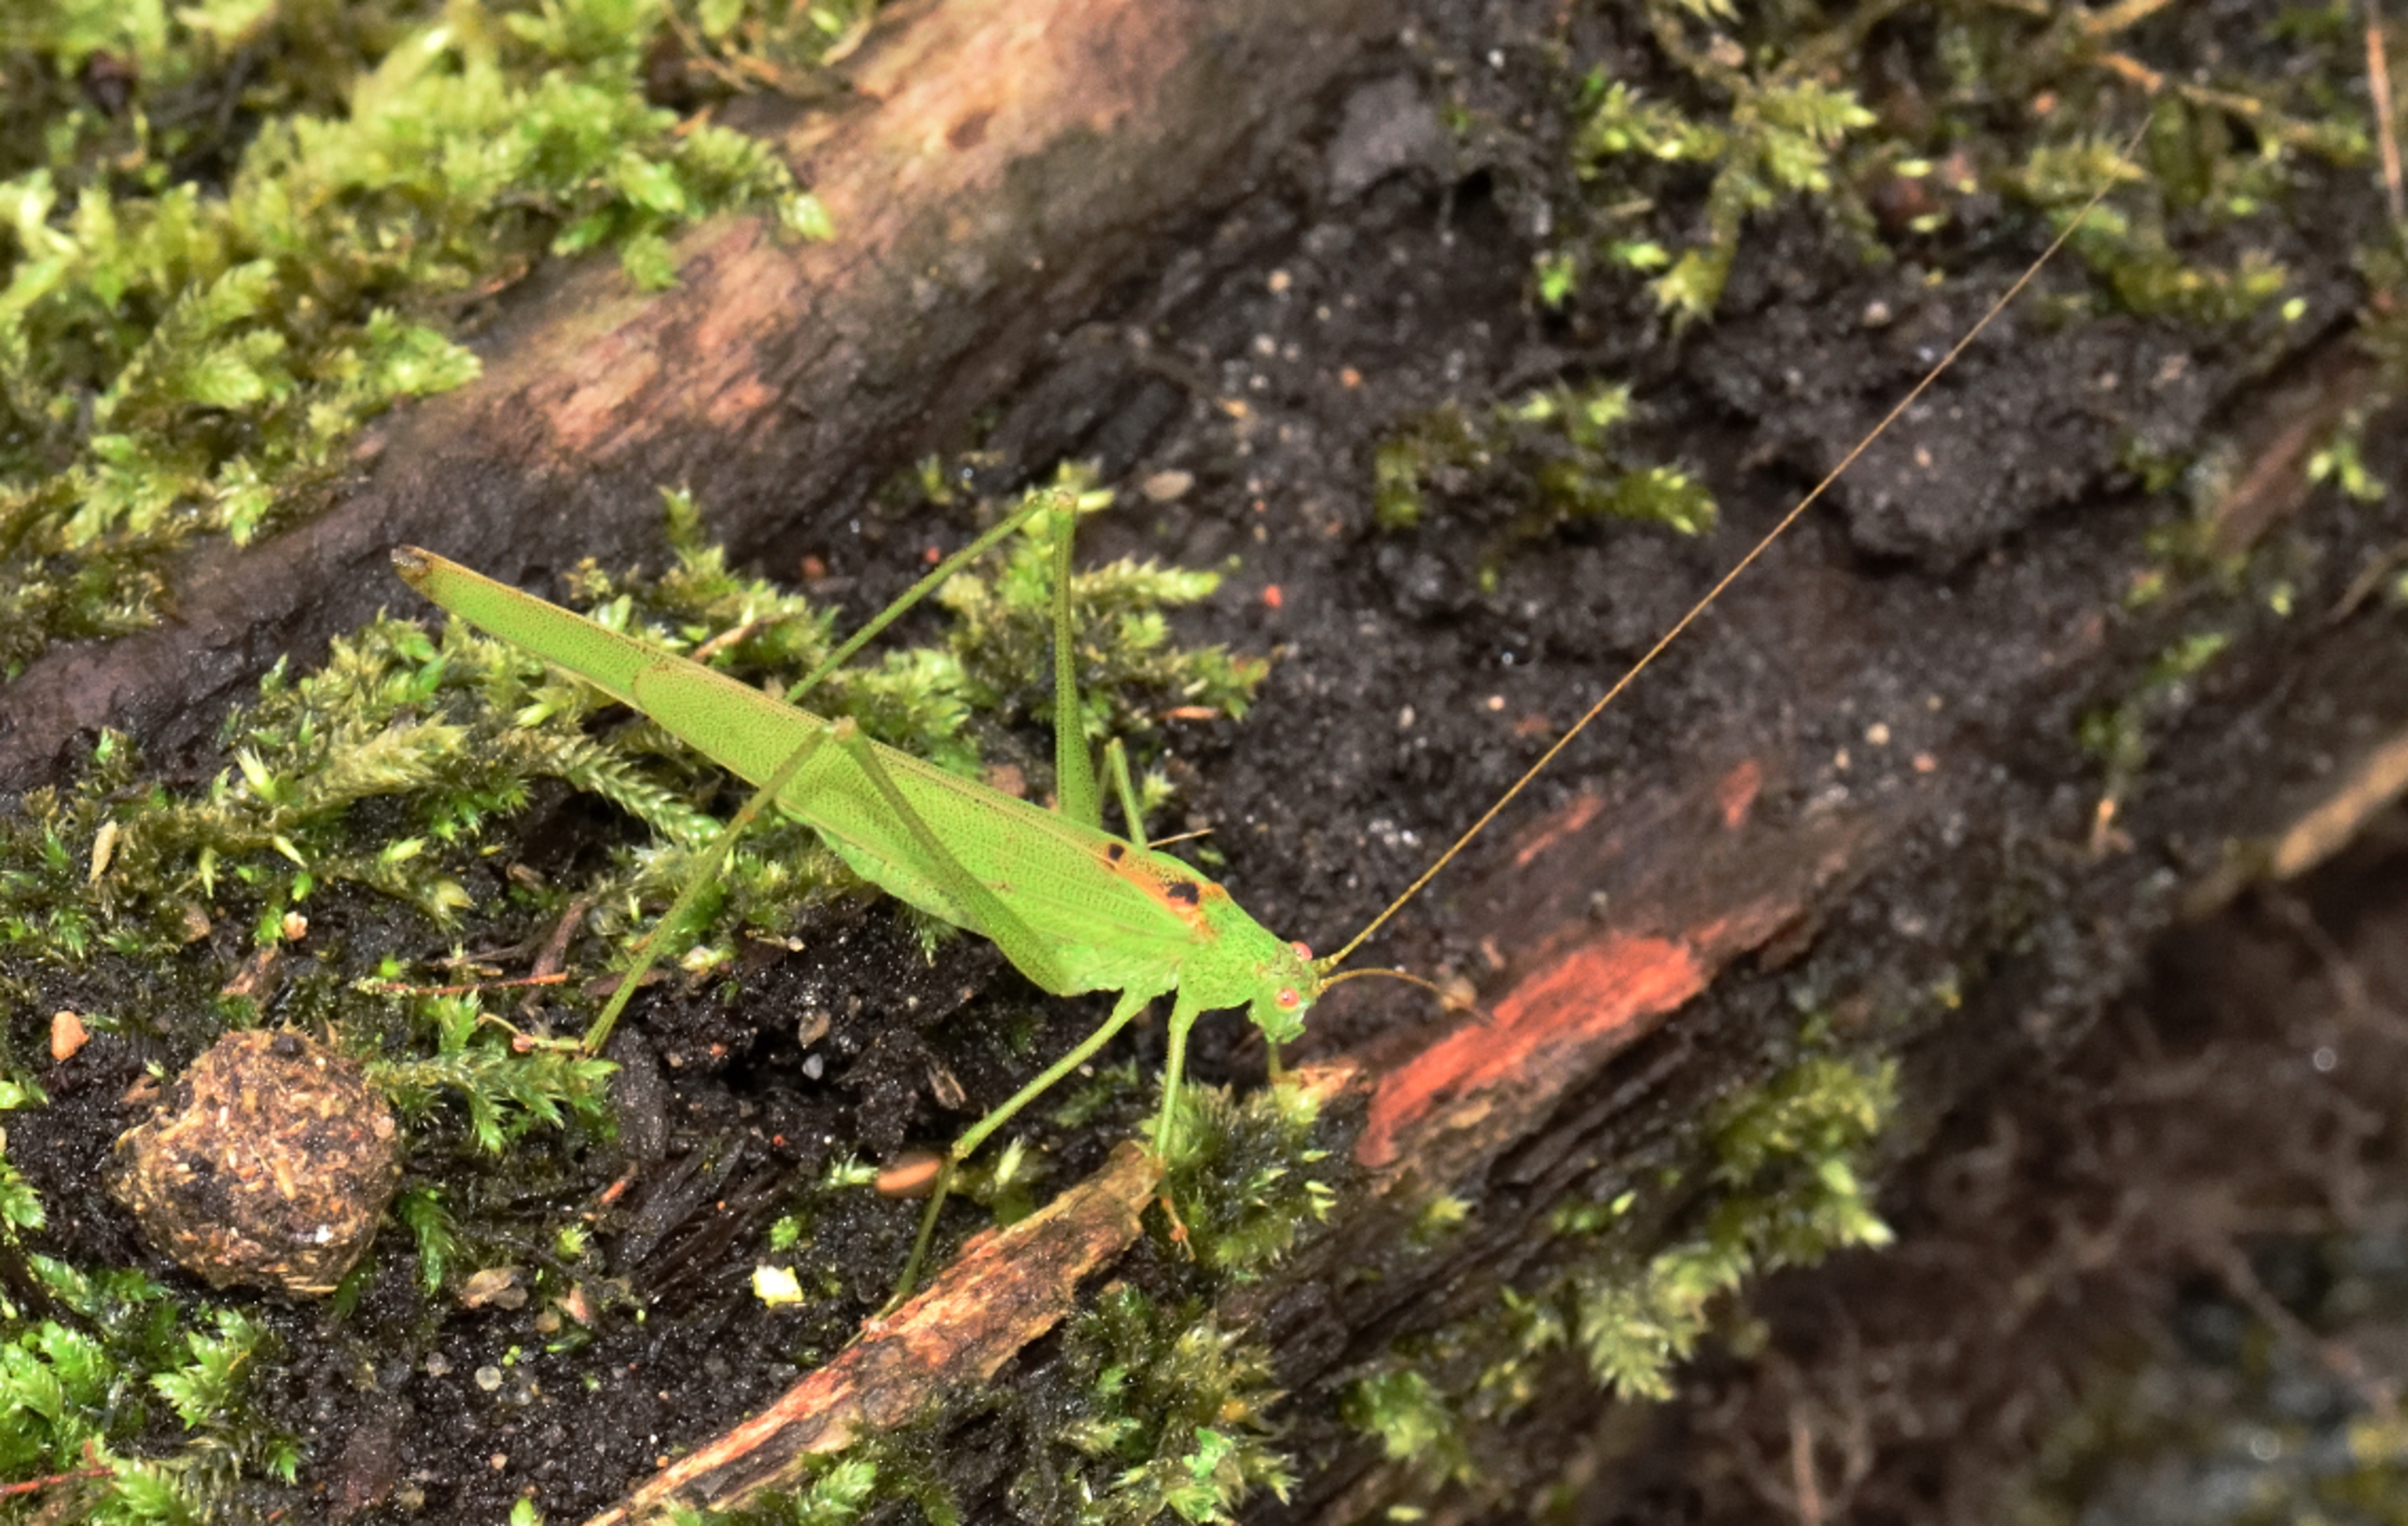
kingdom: Animalia
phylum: Arthropoda
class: Insecta
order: Orthoptera
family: Tettigoniidae
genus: Phaneroptera
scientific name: Phaneroptera falcata
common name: Seglgræshoppe
